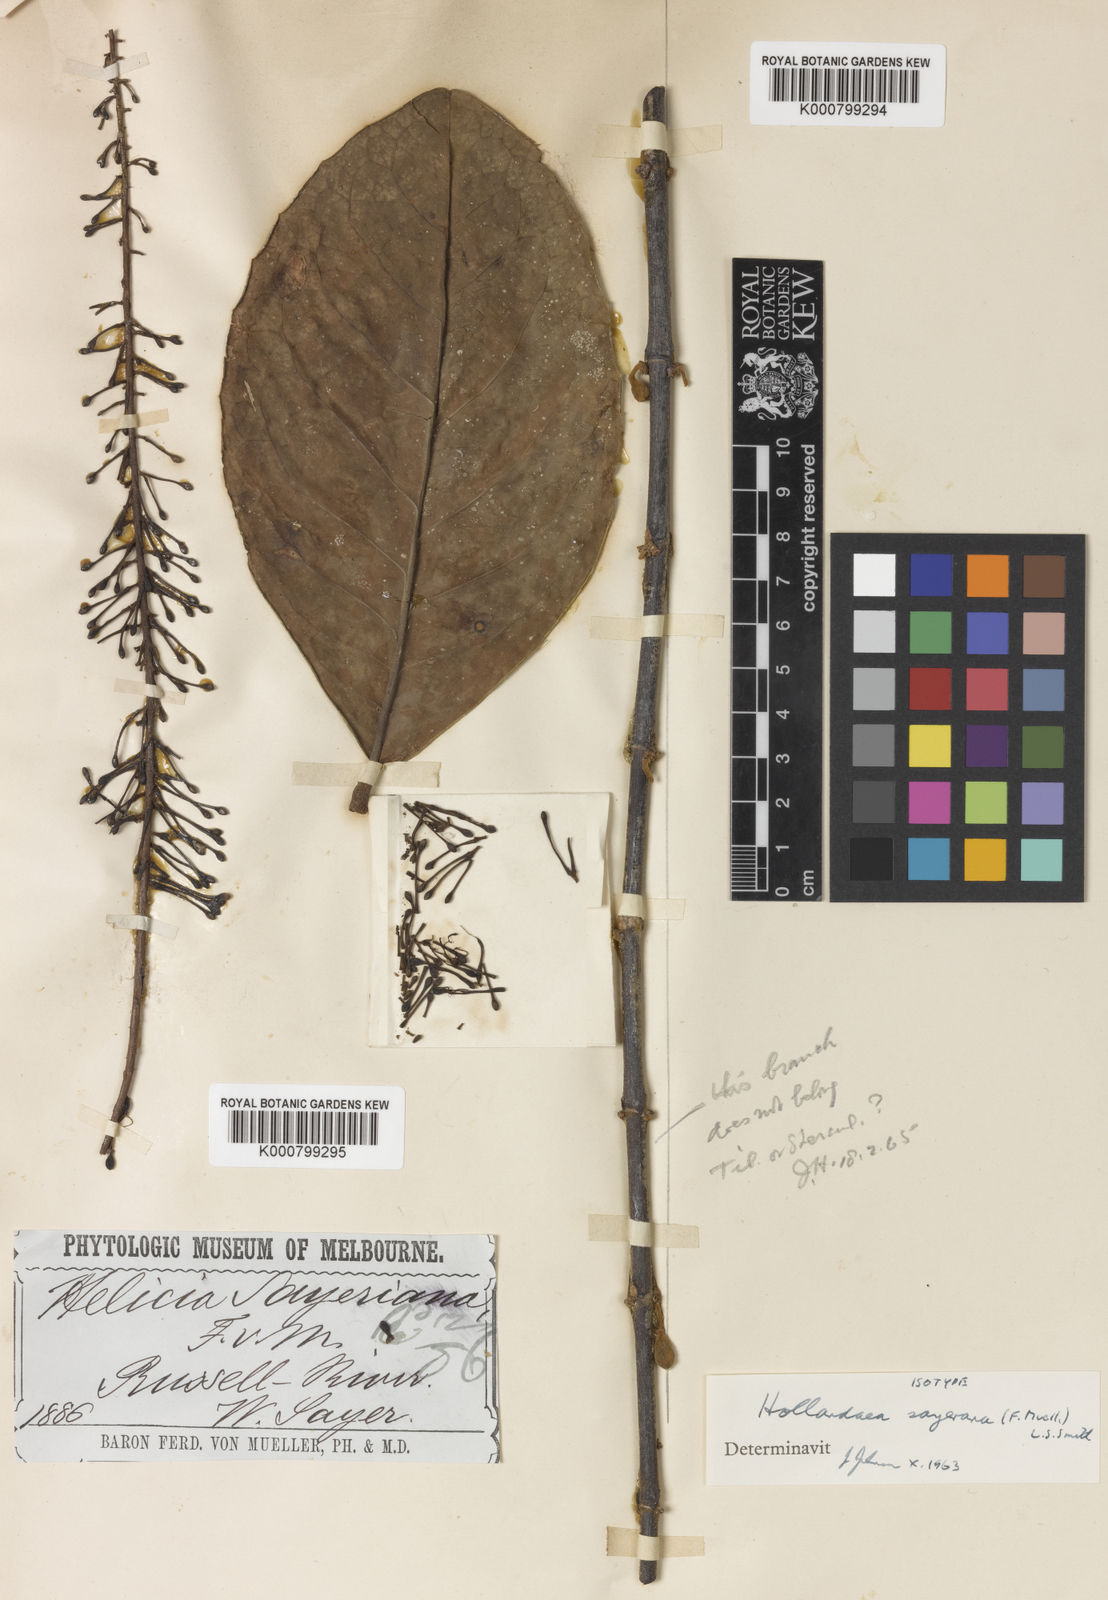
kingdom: Plantae
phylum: Tracheophyta
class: Magnoliopsida
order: Proteales
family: Proteaceae
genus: Hollandaea
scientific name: Hollandaea sayeriana
